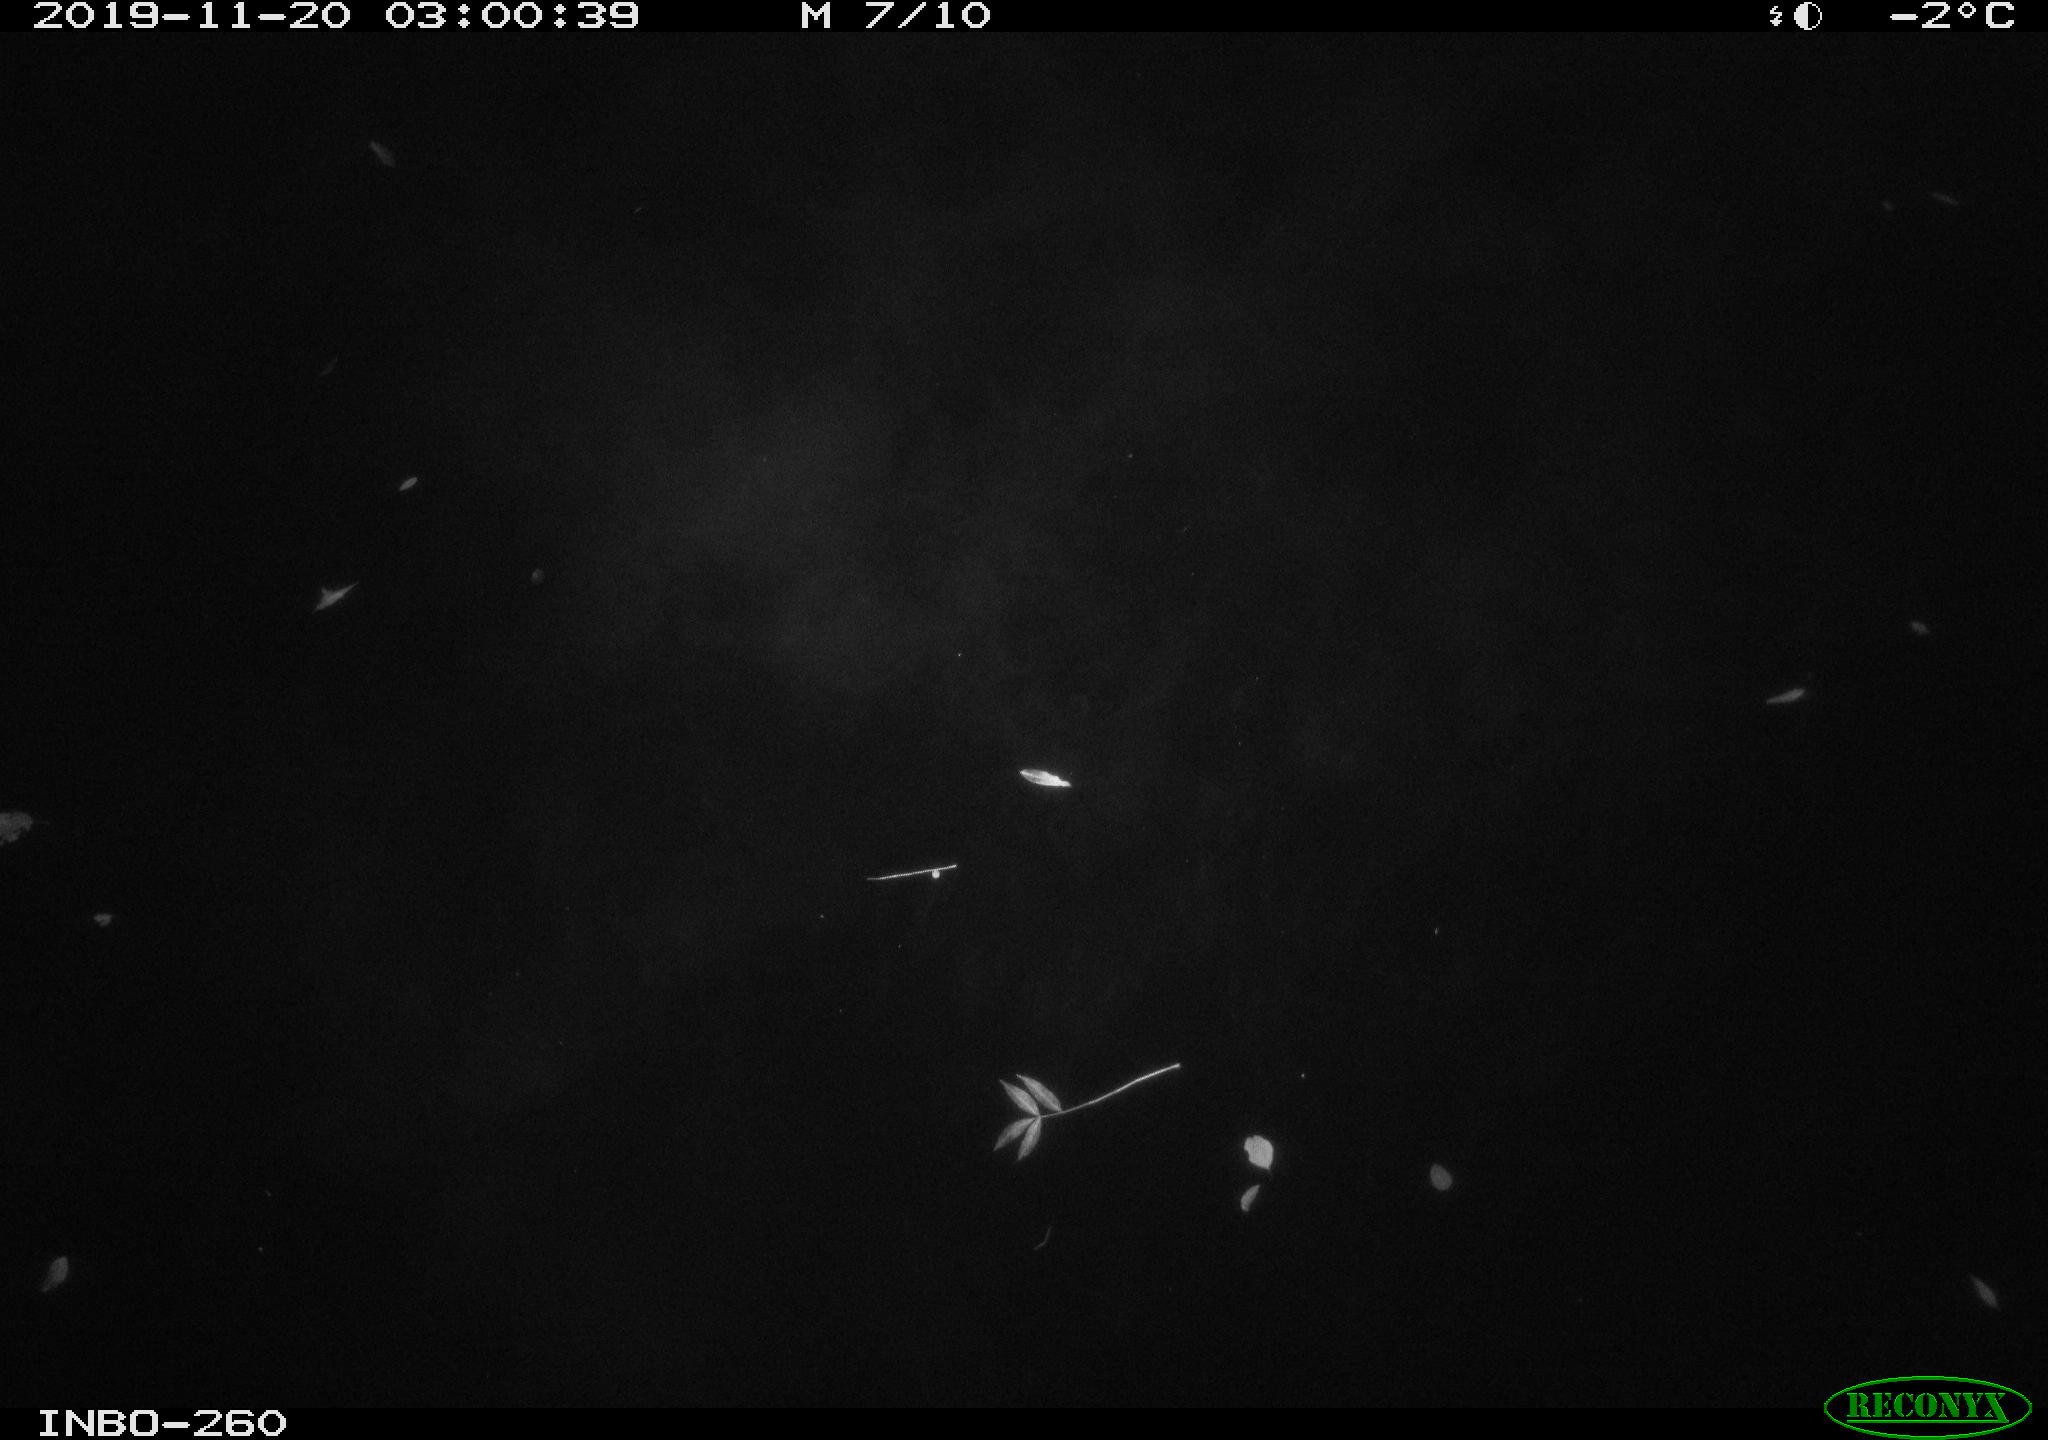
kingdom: Animalia
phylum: Chordata
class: Aves
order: Anseriformes
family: Anatidae
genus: Anas
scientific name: Anas platyrhynchos
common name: Mallard
